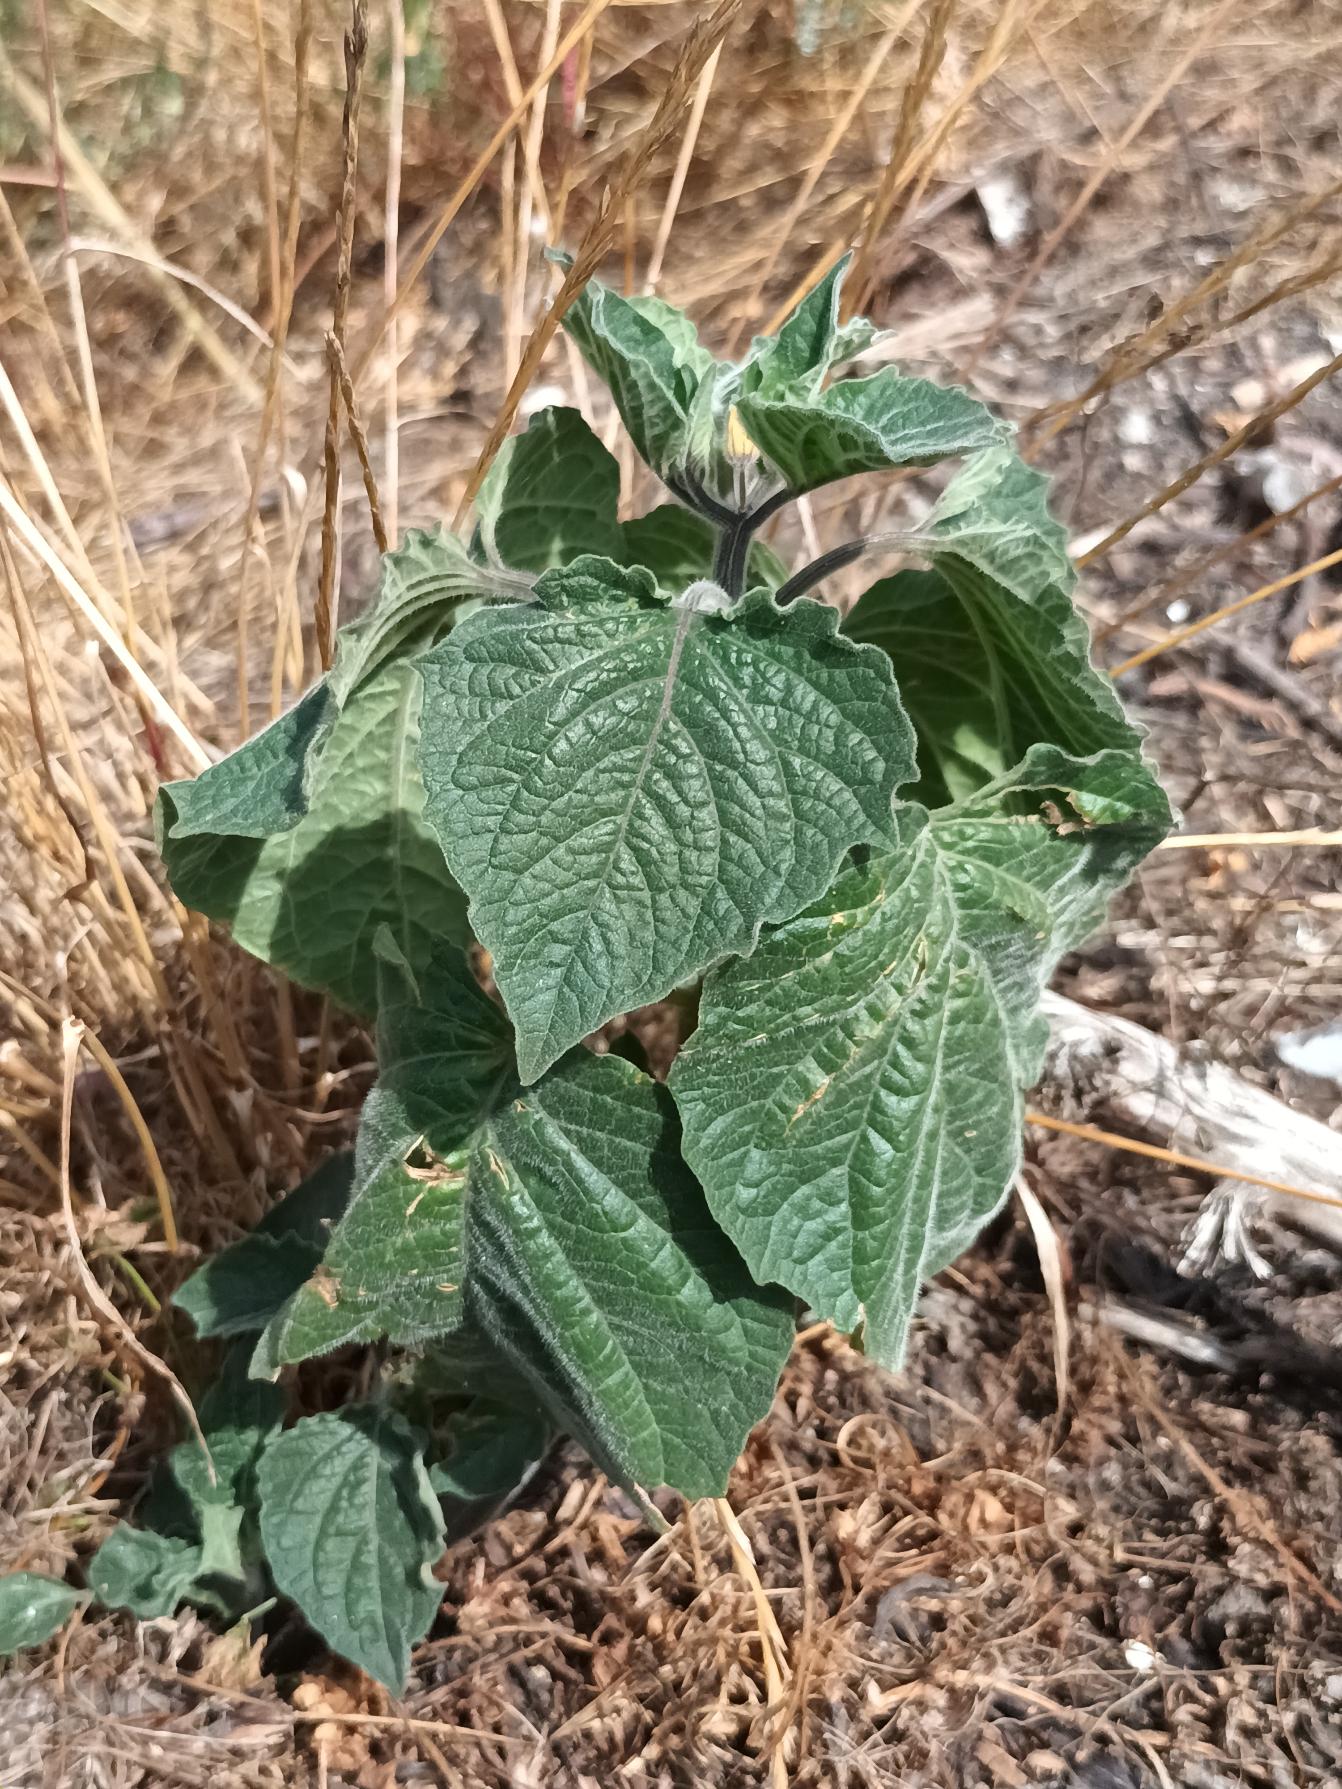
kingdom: Plantae
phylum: Tracheophyta
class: Magnoliopsida
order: Solanales
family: Solanaceae
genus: Physalis
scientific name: Physalis grisea
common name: Jordbærtomat
